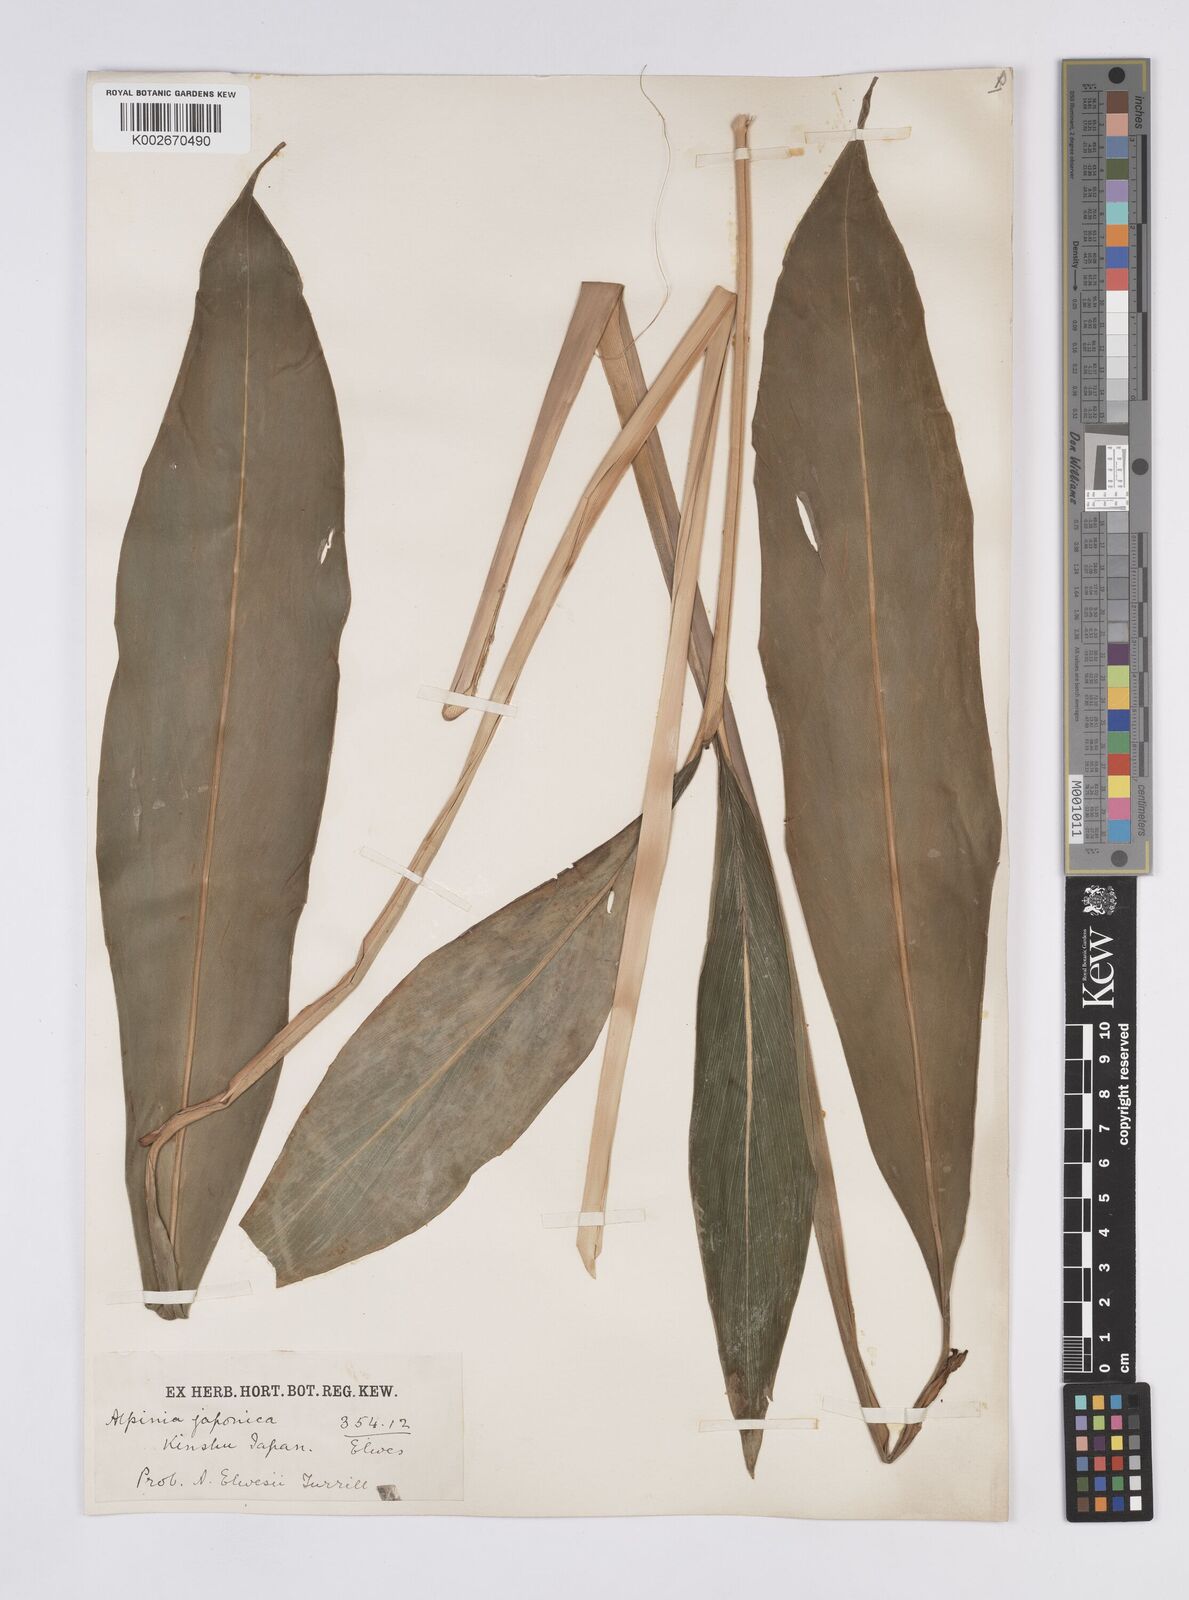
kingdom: Plantae
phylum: Tracheophyta
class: Liliopsida
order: Zingiberales
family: Zingiberaceae
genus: Alpinia
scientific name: Alpinia japonica
